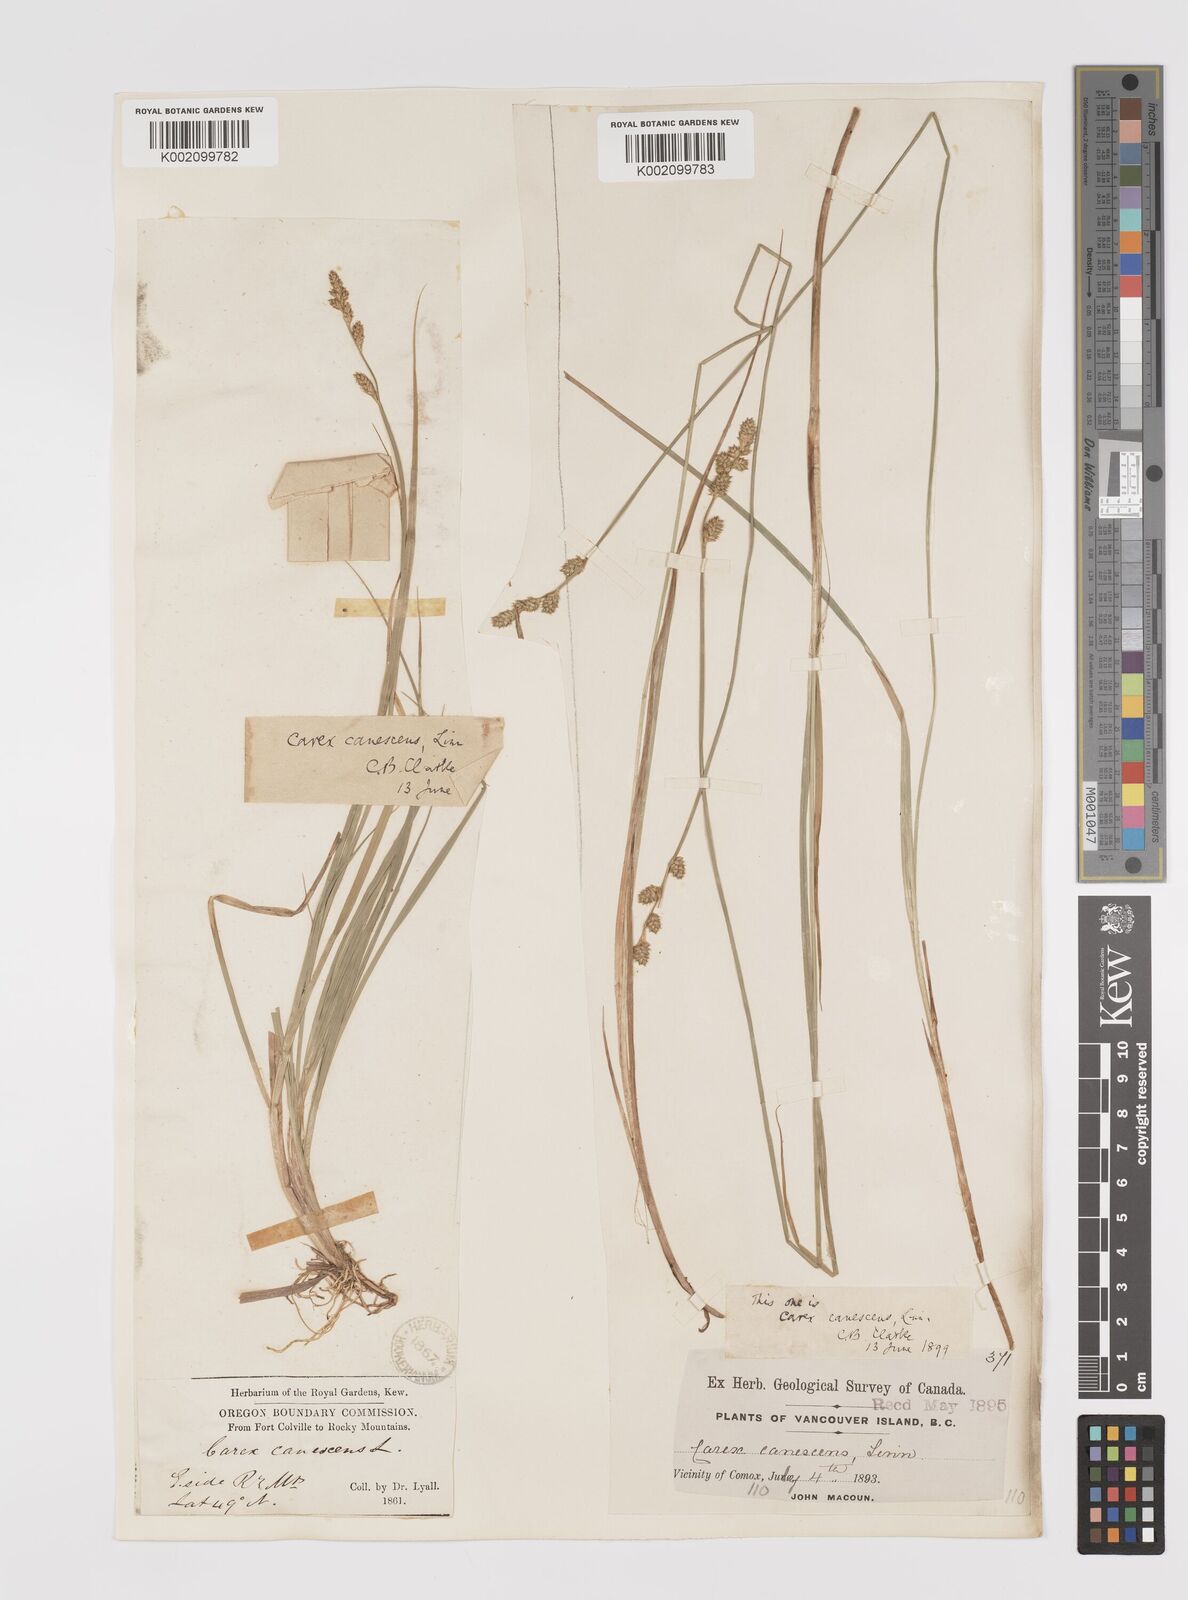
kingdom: Plantae
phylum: Tracheophyta
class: Liliopsida
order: Poales
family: Cyperaceae
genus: Carex
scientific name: Carex curta
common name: White sedge
